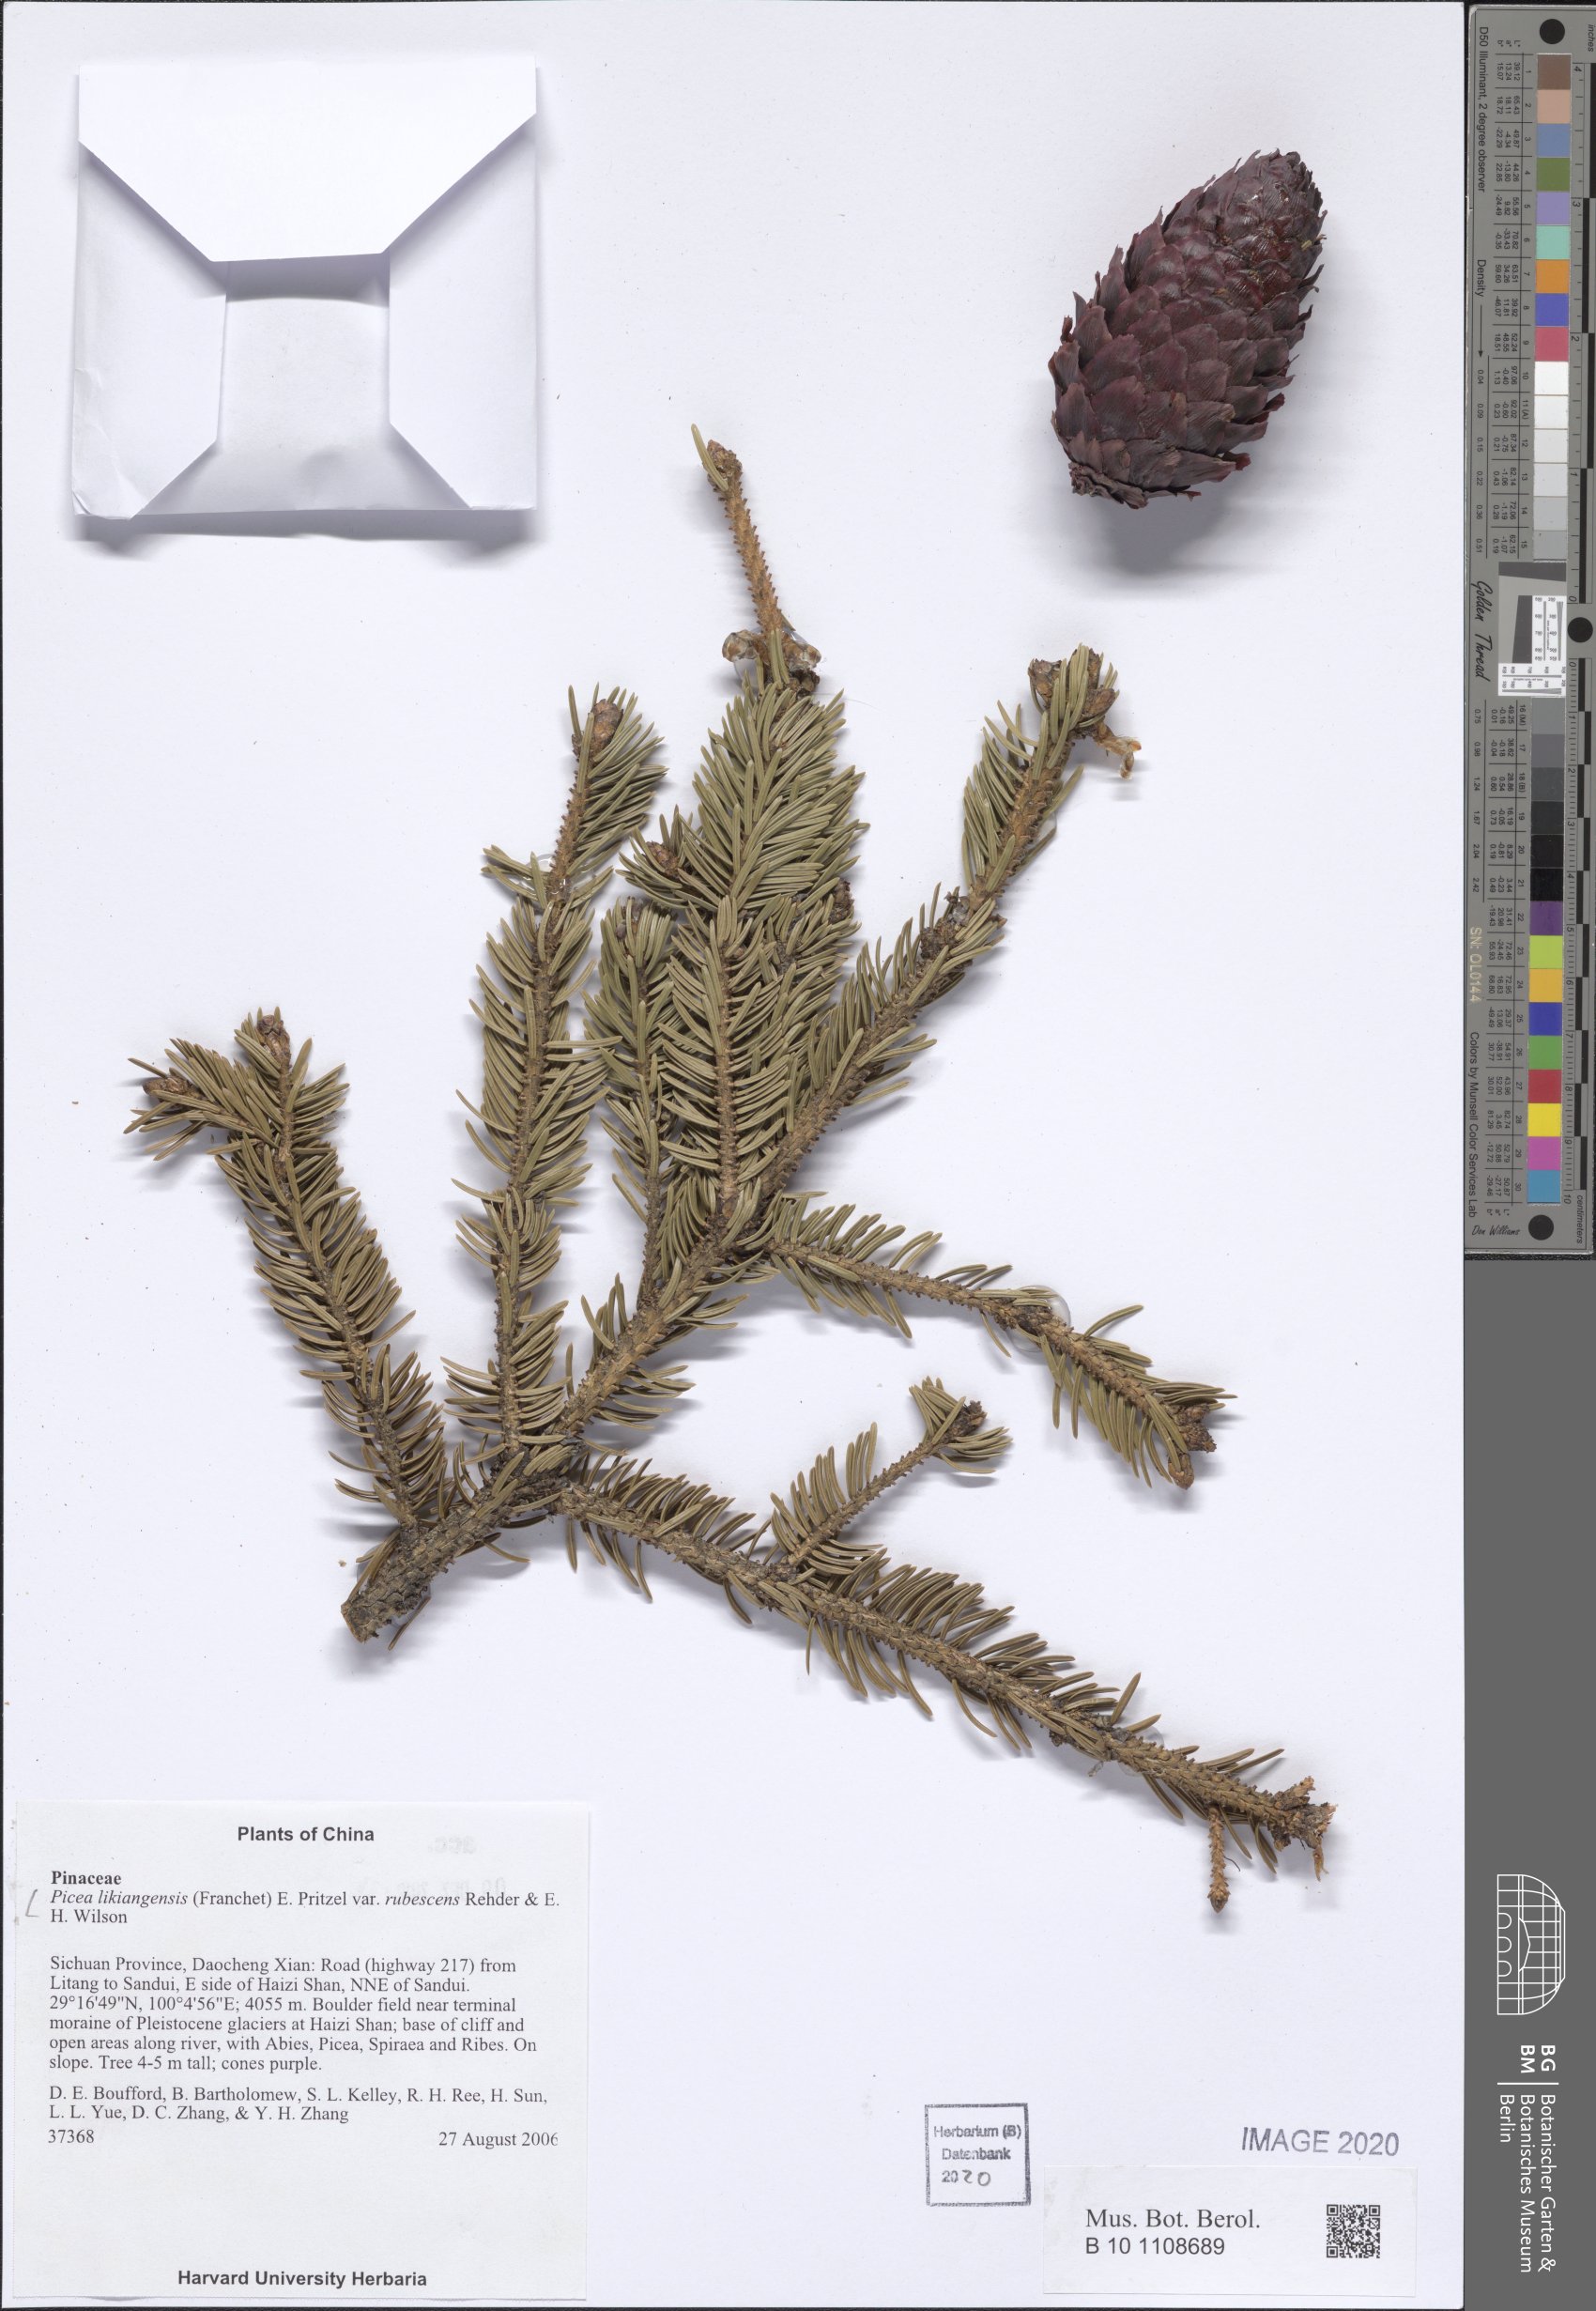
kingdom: Plantae
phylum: Tracheophyta
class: Pinopsida
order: Pinales
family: Pinaceae
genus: Picea
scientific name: Picea likiangensis
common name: Likiang spruce
